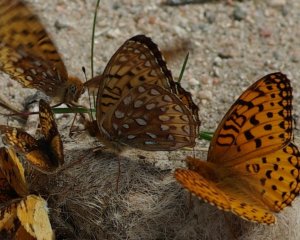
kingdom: Animalia
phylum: Arthropoda
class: Insecta
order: Lepidoptera
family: Nymphalidae
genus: Speyeria
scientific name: Speyeria aphrodite
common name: Aphrodite Fritillary
